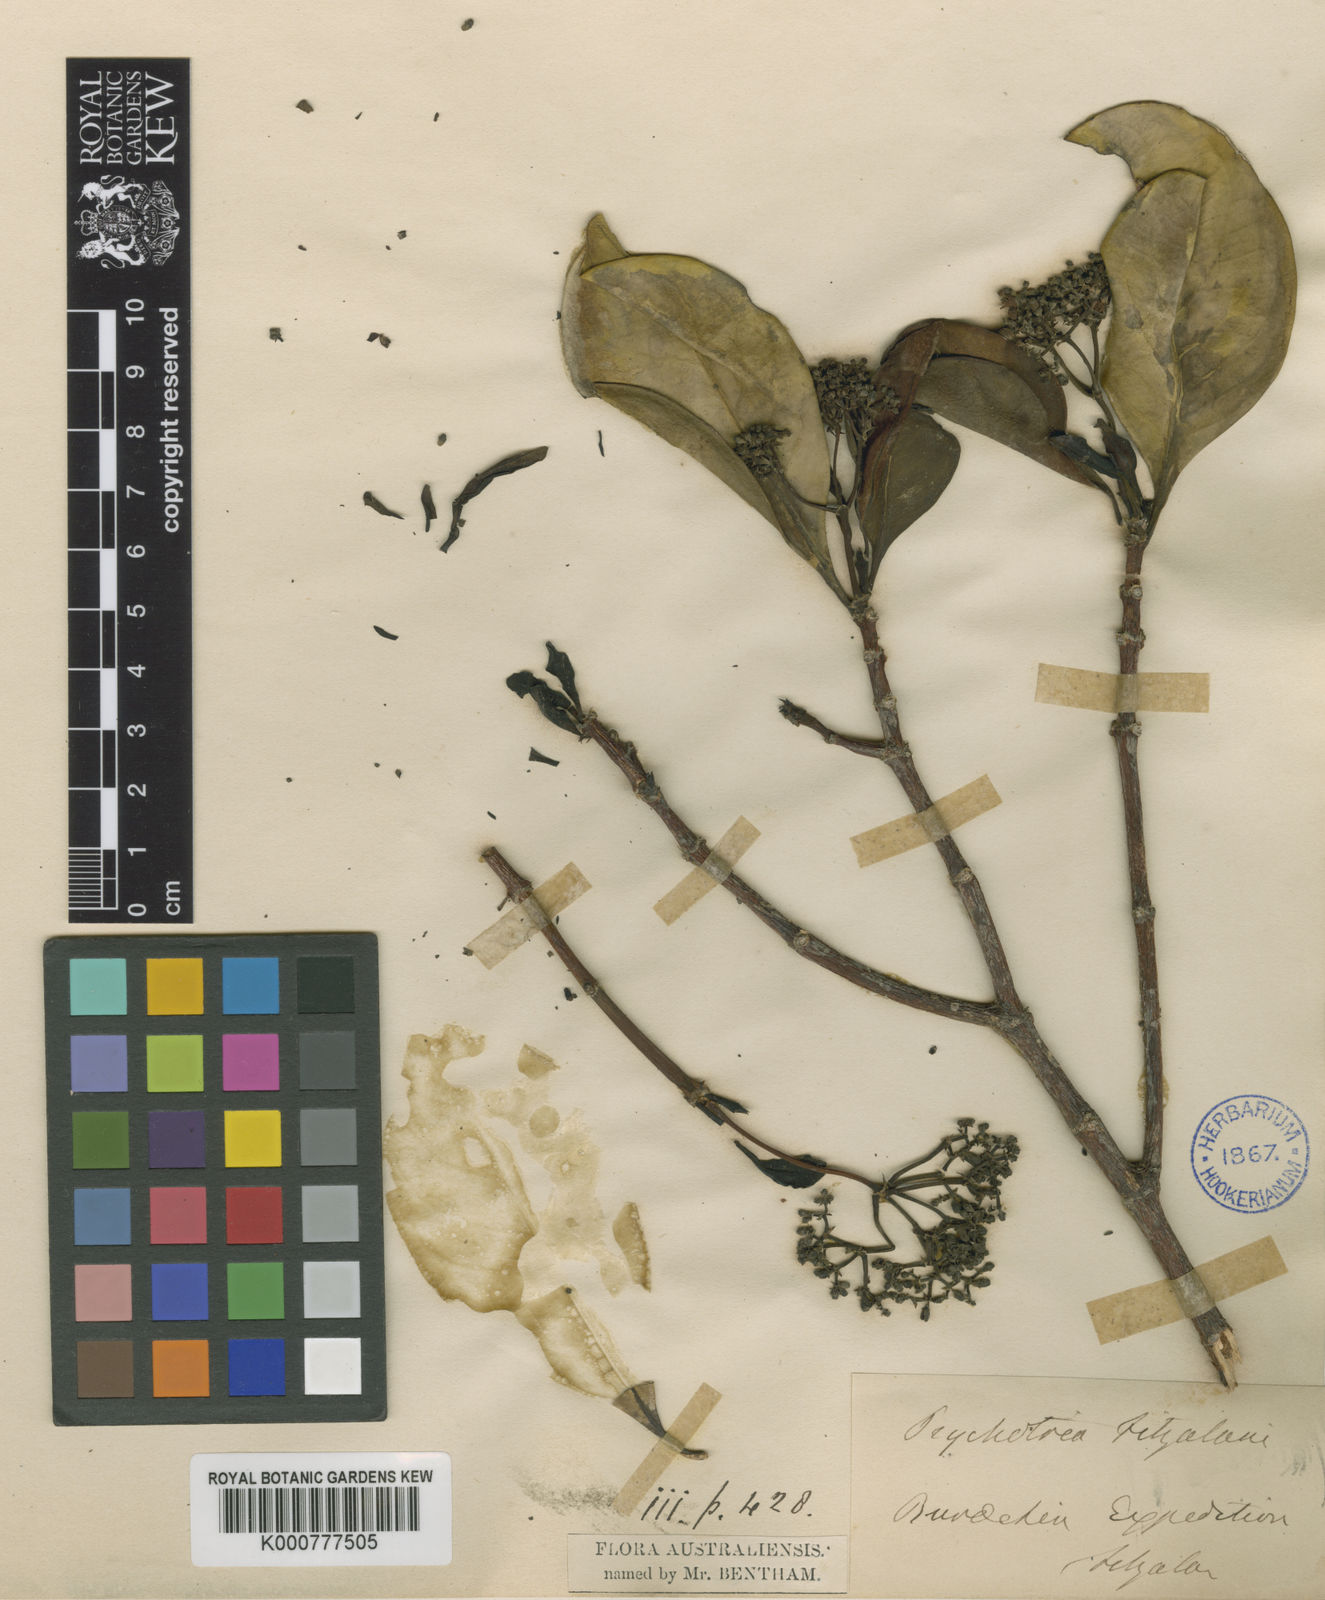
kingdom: Plantae
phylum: Tracheophyta
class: Magnoliopsida
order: Gentianales
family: Rubiaceae
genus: Psychotria
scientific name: Psychotria fitzalanii
